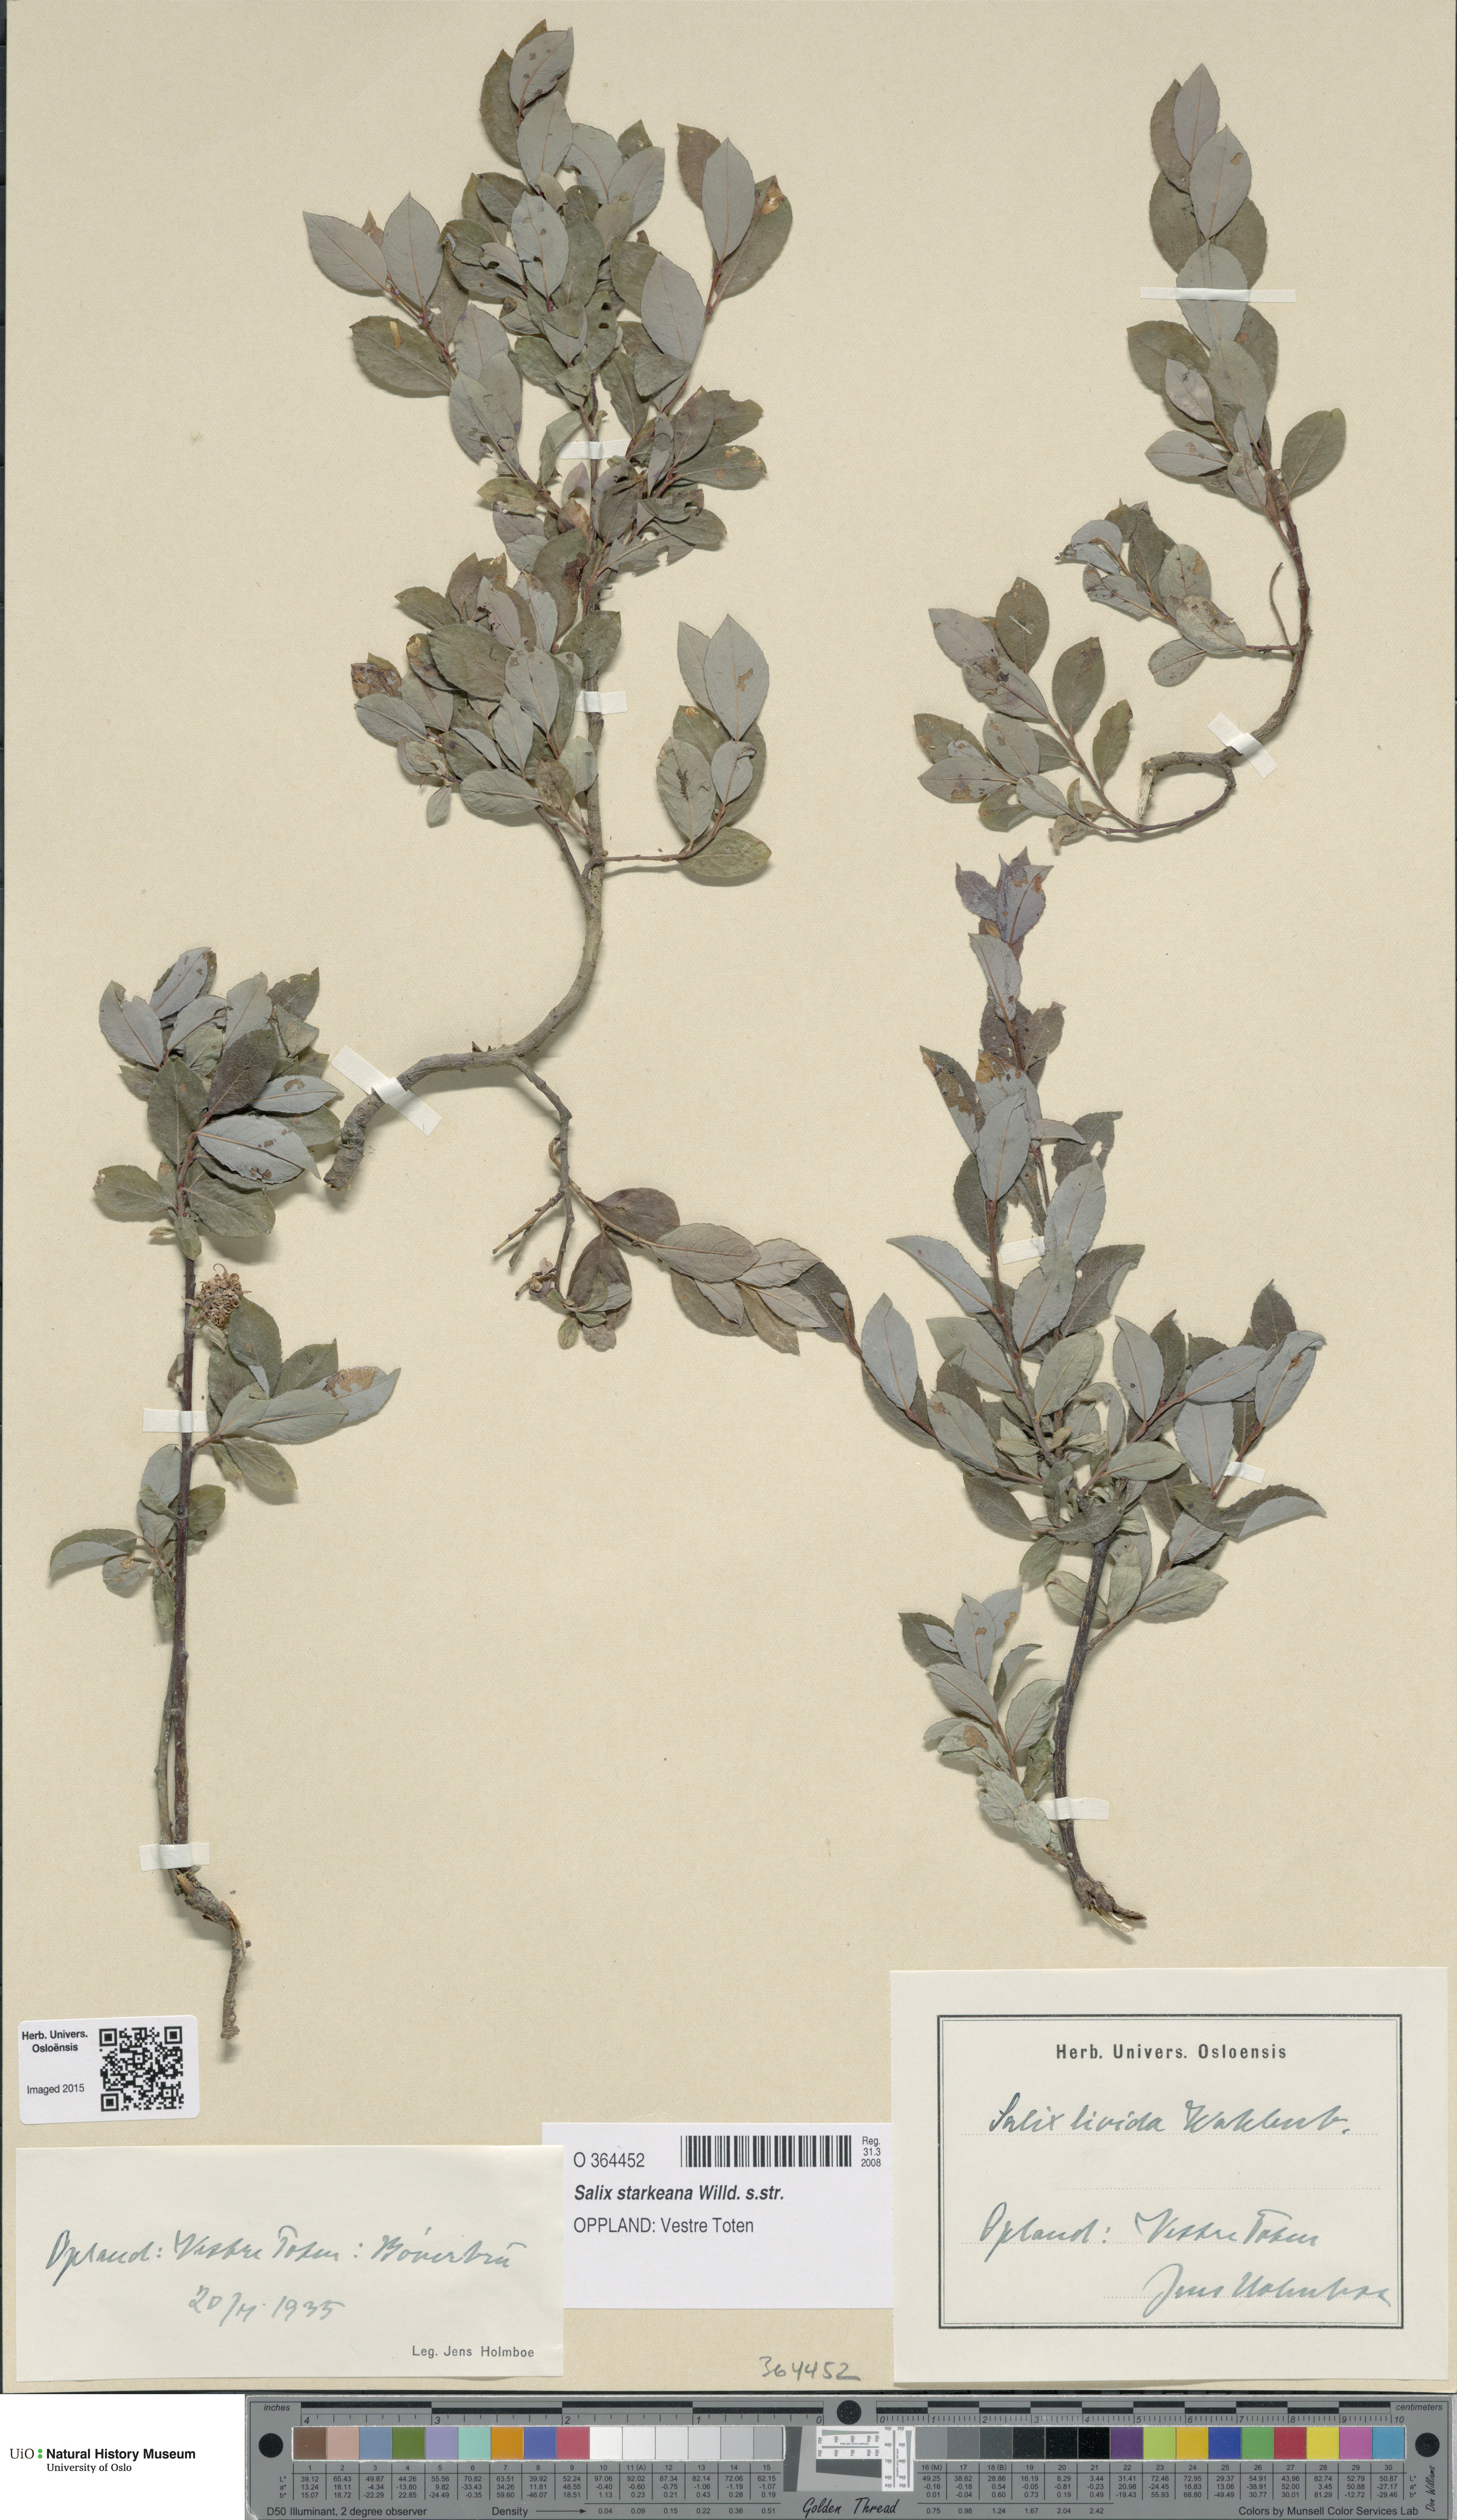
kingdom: Plantae
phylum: Tracheophyta
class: Magnoliopsida
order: Malpighiales
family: Salicaceae
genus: Salix
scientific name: Salix starkeana
